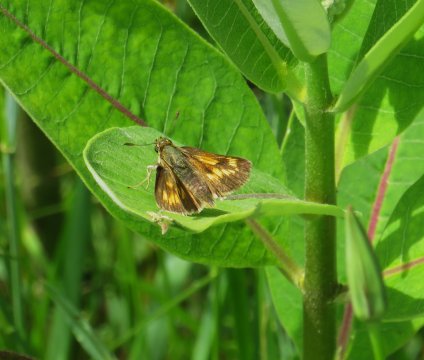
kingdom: Animalia
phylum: Arthropoda
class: Insecta
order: Lepidoptera
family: Hesperiidae
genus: Polites
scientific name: Polites
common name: Long Dash Skipper
